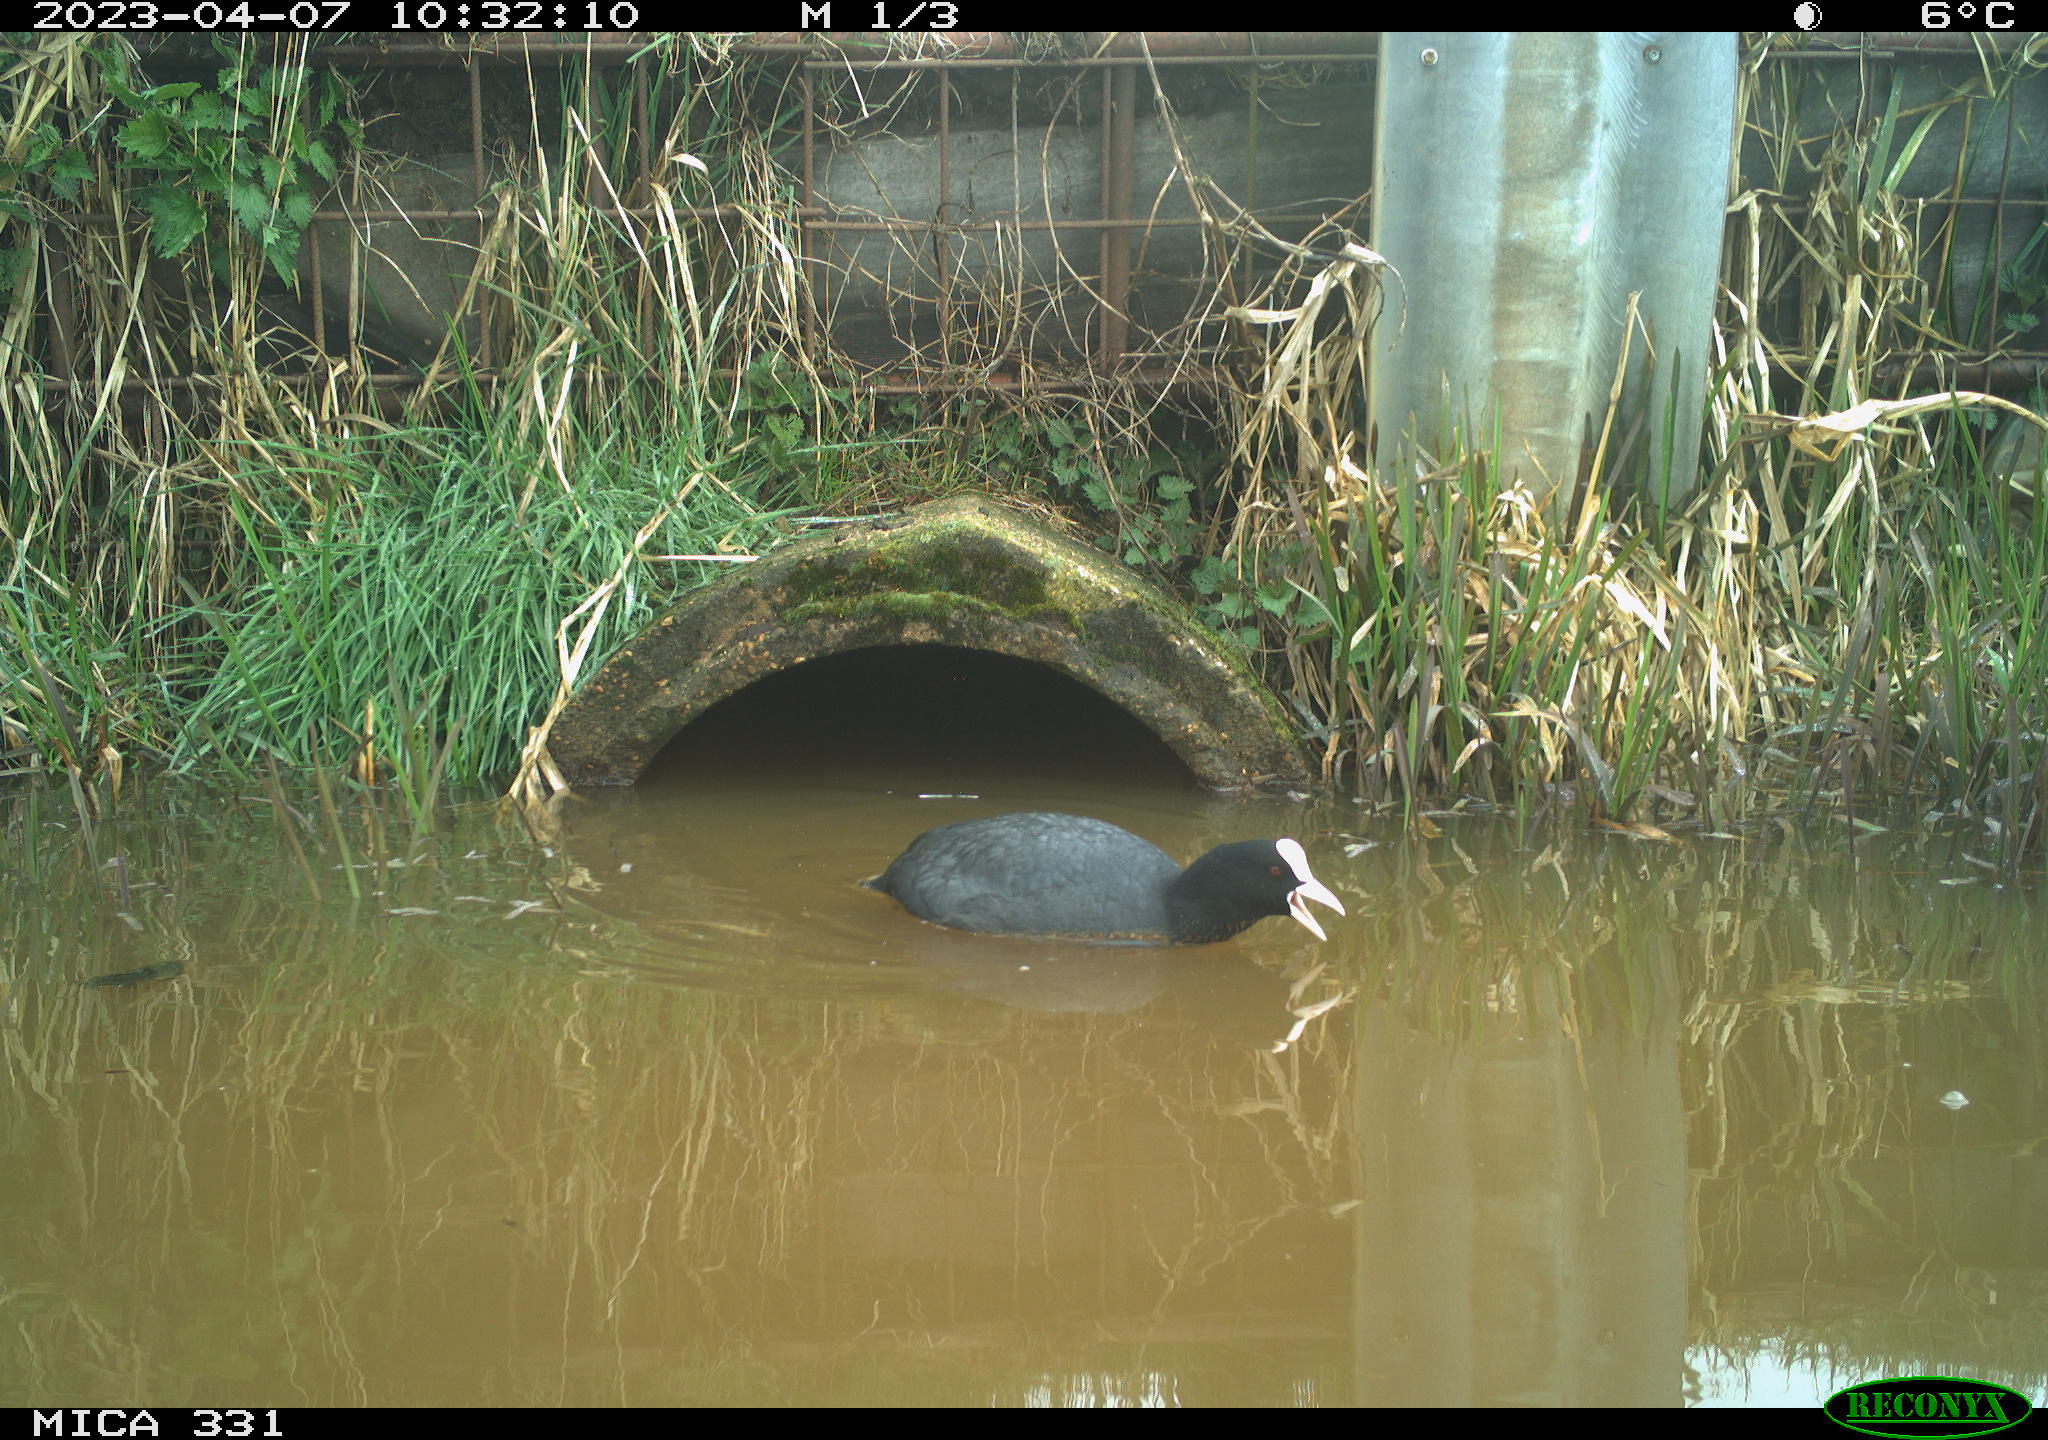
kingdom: Animalia
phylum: Chordata
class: Aves
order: Gruiformes
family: Rallidae
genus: Fulica
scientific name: Fulica atra
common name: Eurasian coot
